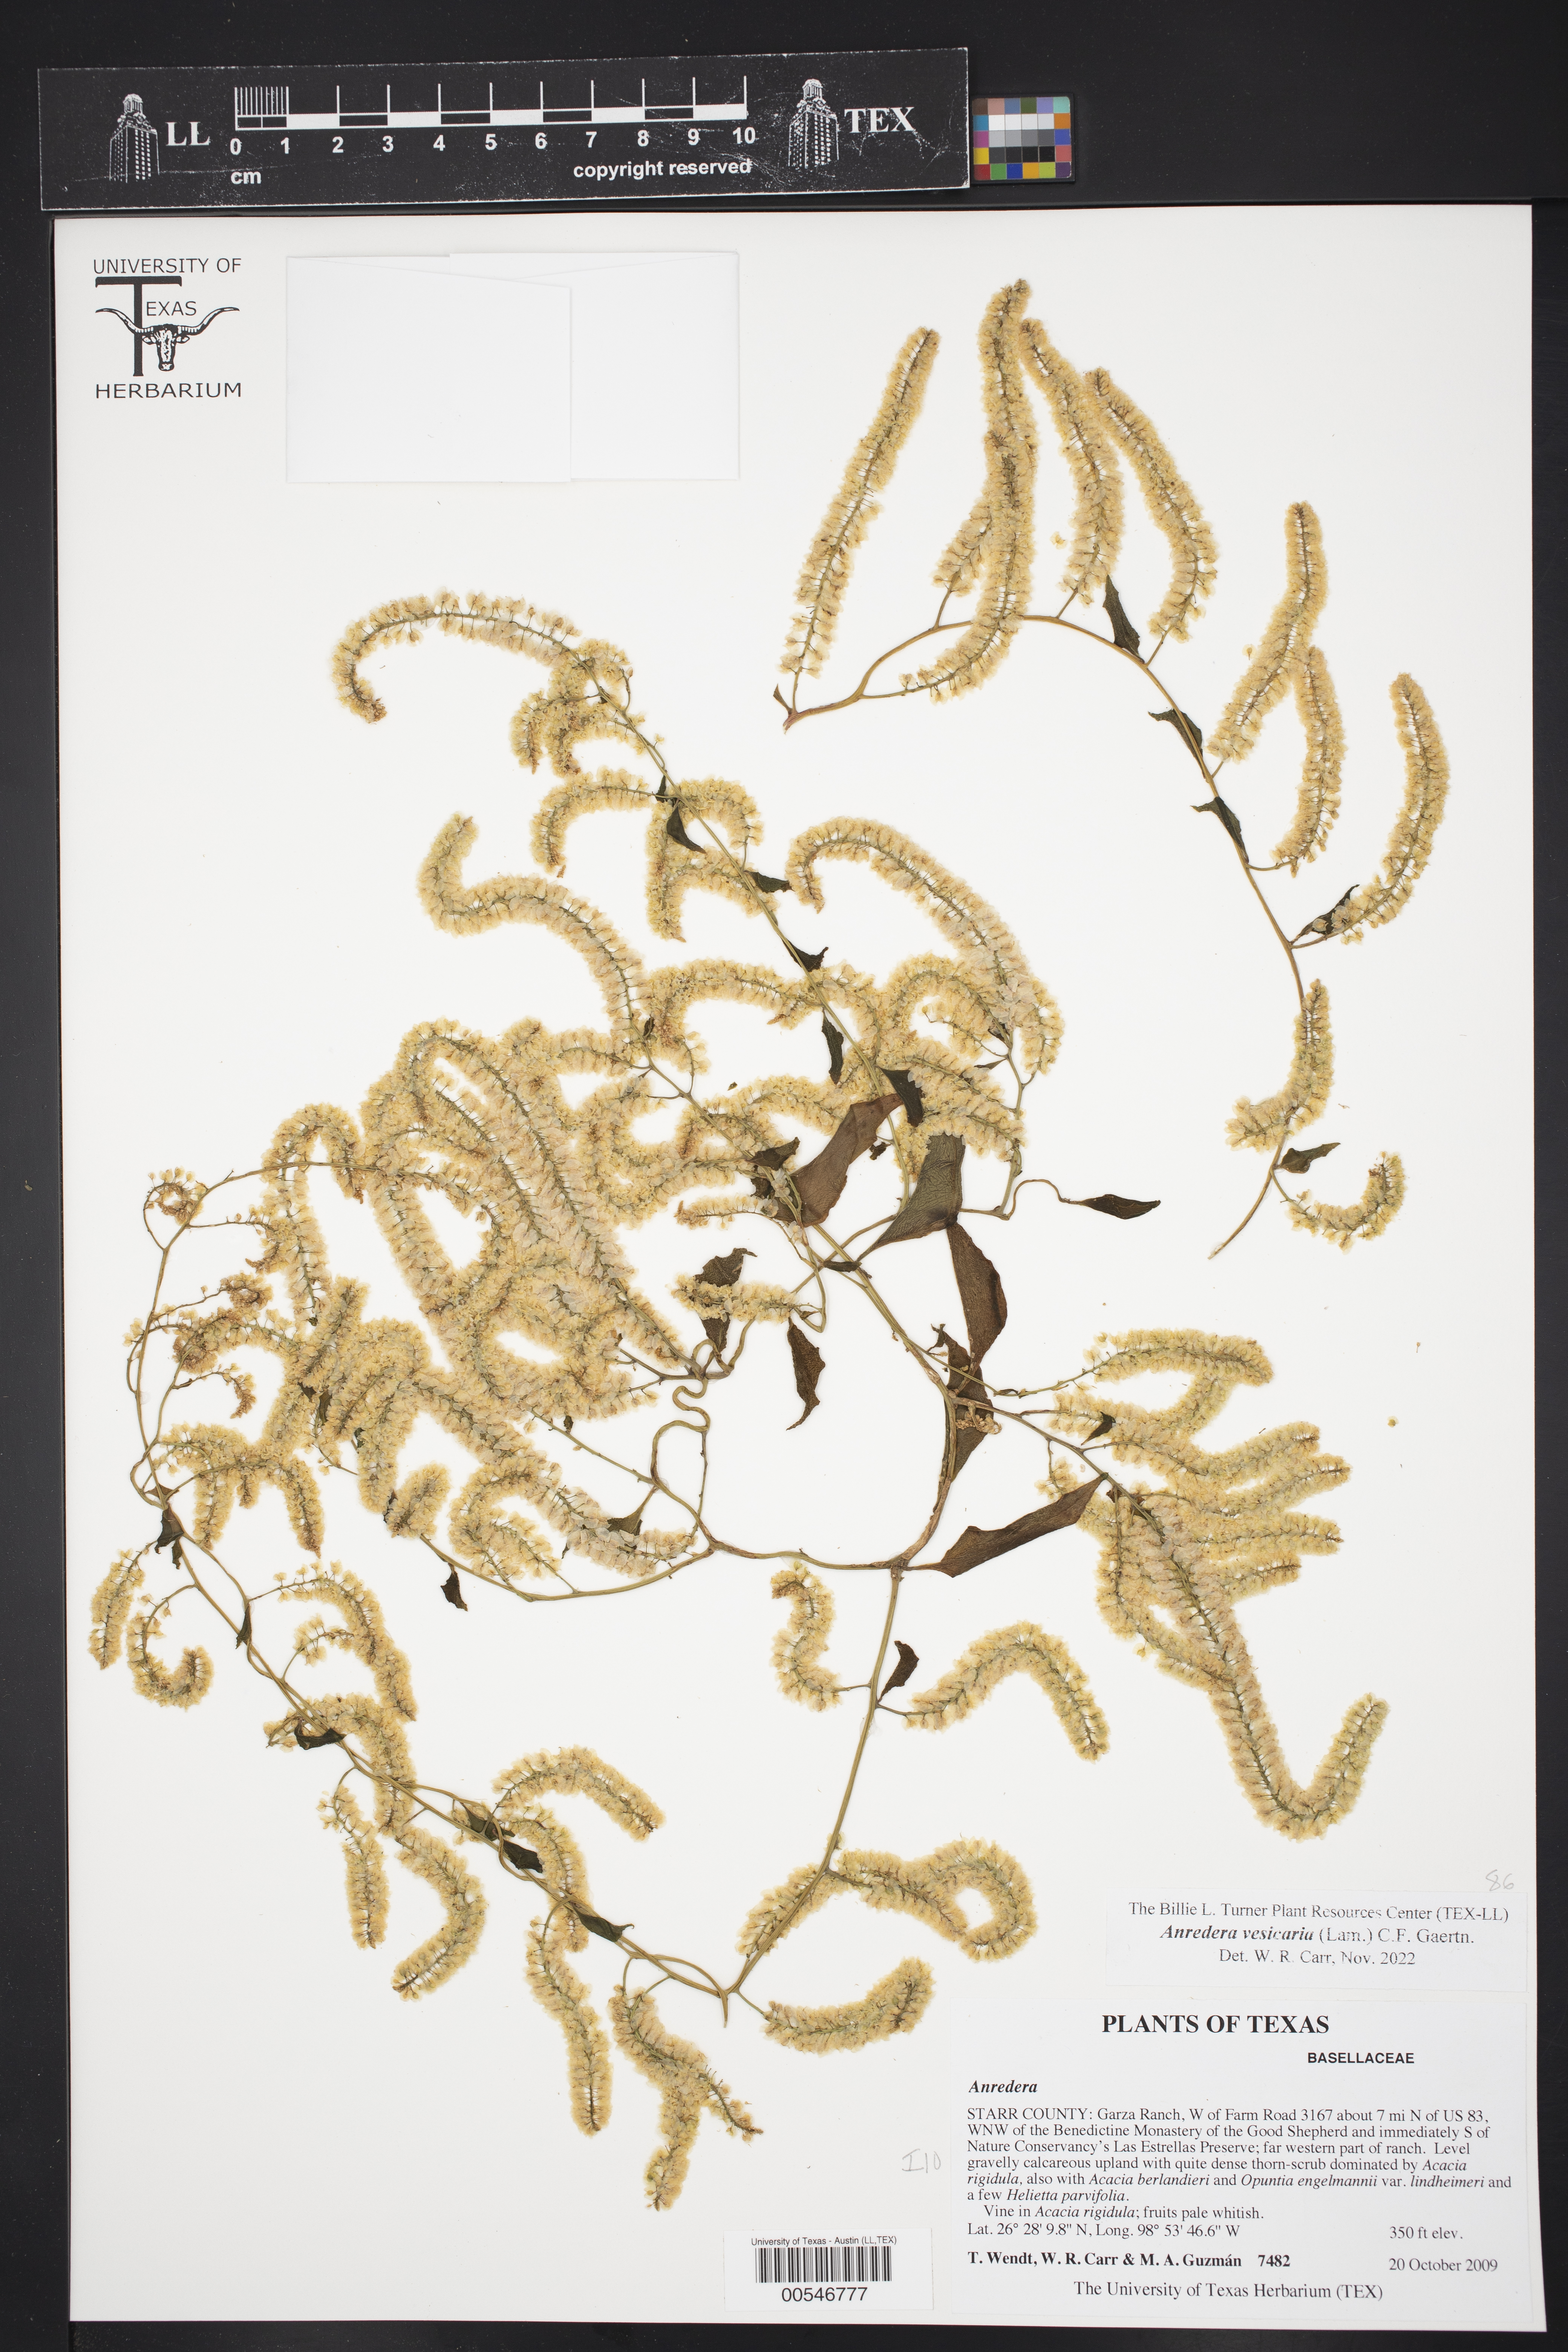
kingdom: Plantae
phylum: Tracheophyta
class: Magnoliopsida
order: Caryophyllales
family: Basellaceae
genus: Anredera
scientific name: Anredera vesicaria
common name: Sacasile
